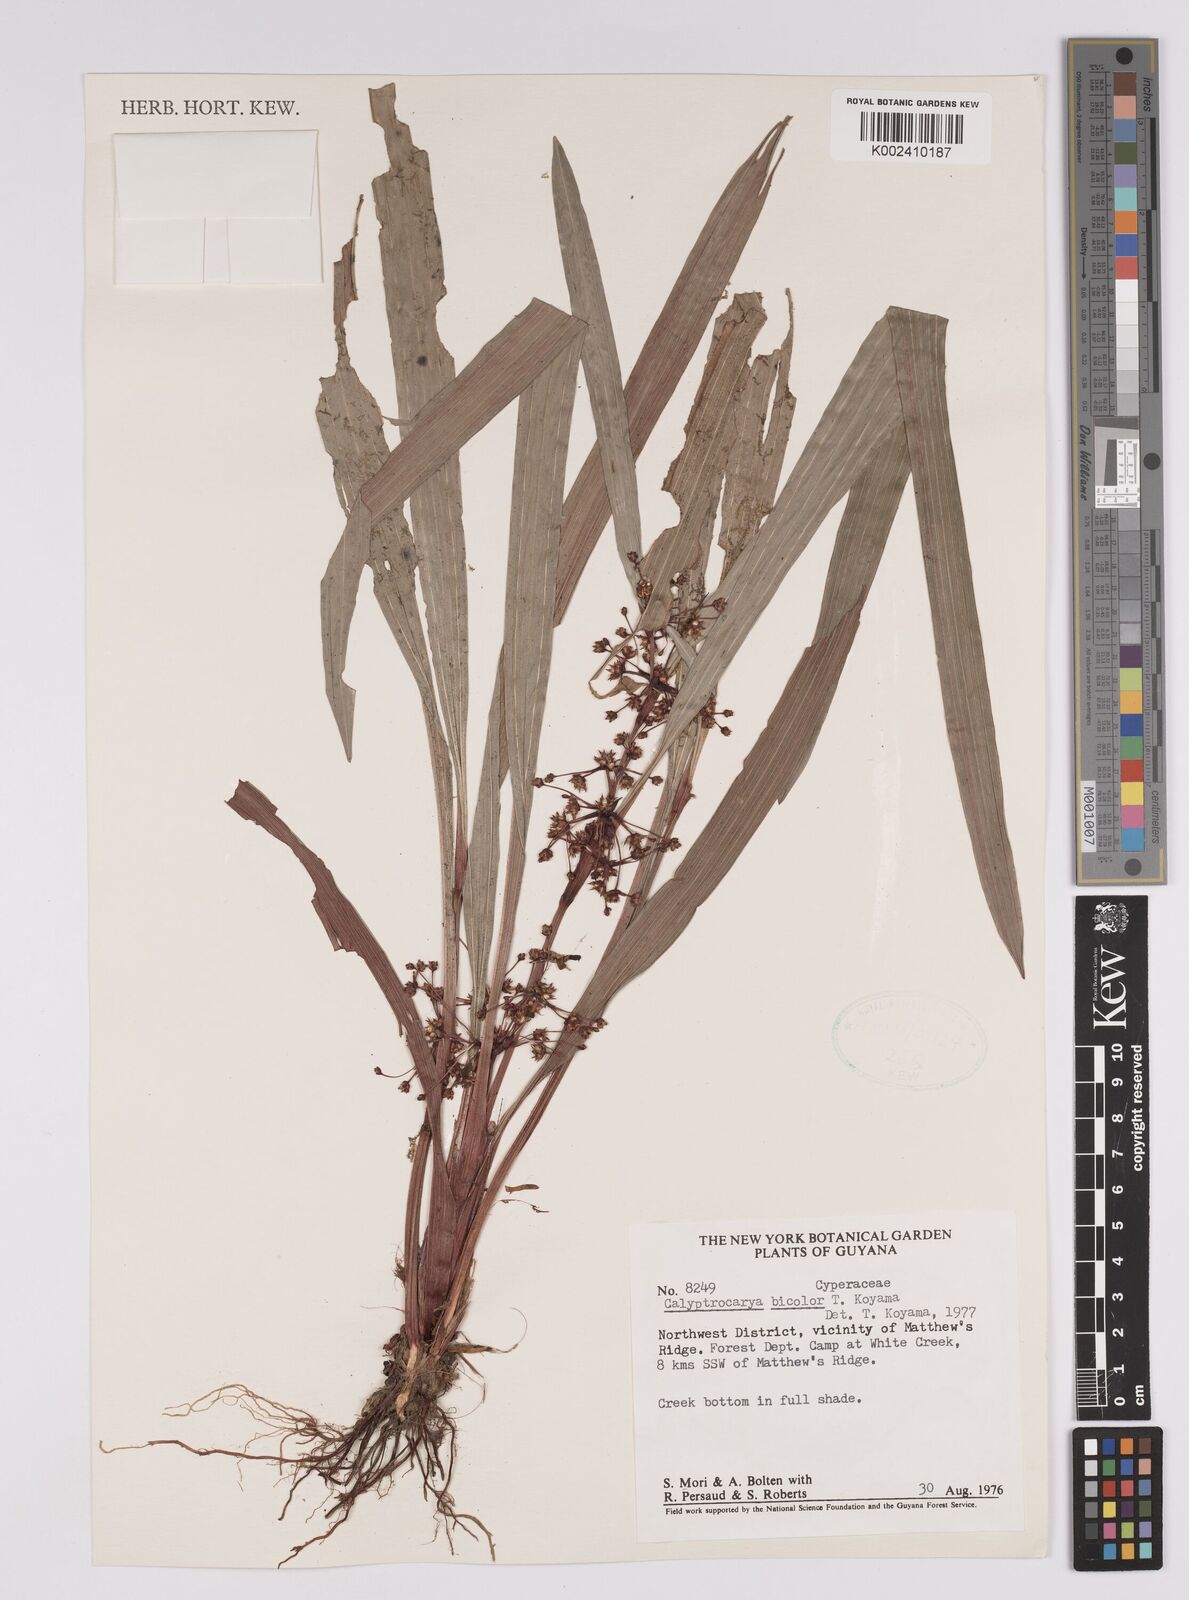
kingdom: Plantae
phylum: Tracheophyta
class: Liliopsida
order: Poales
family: Cyperaceae
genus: Calyptrocarya
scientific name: Calyptrocarya bicolor
